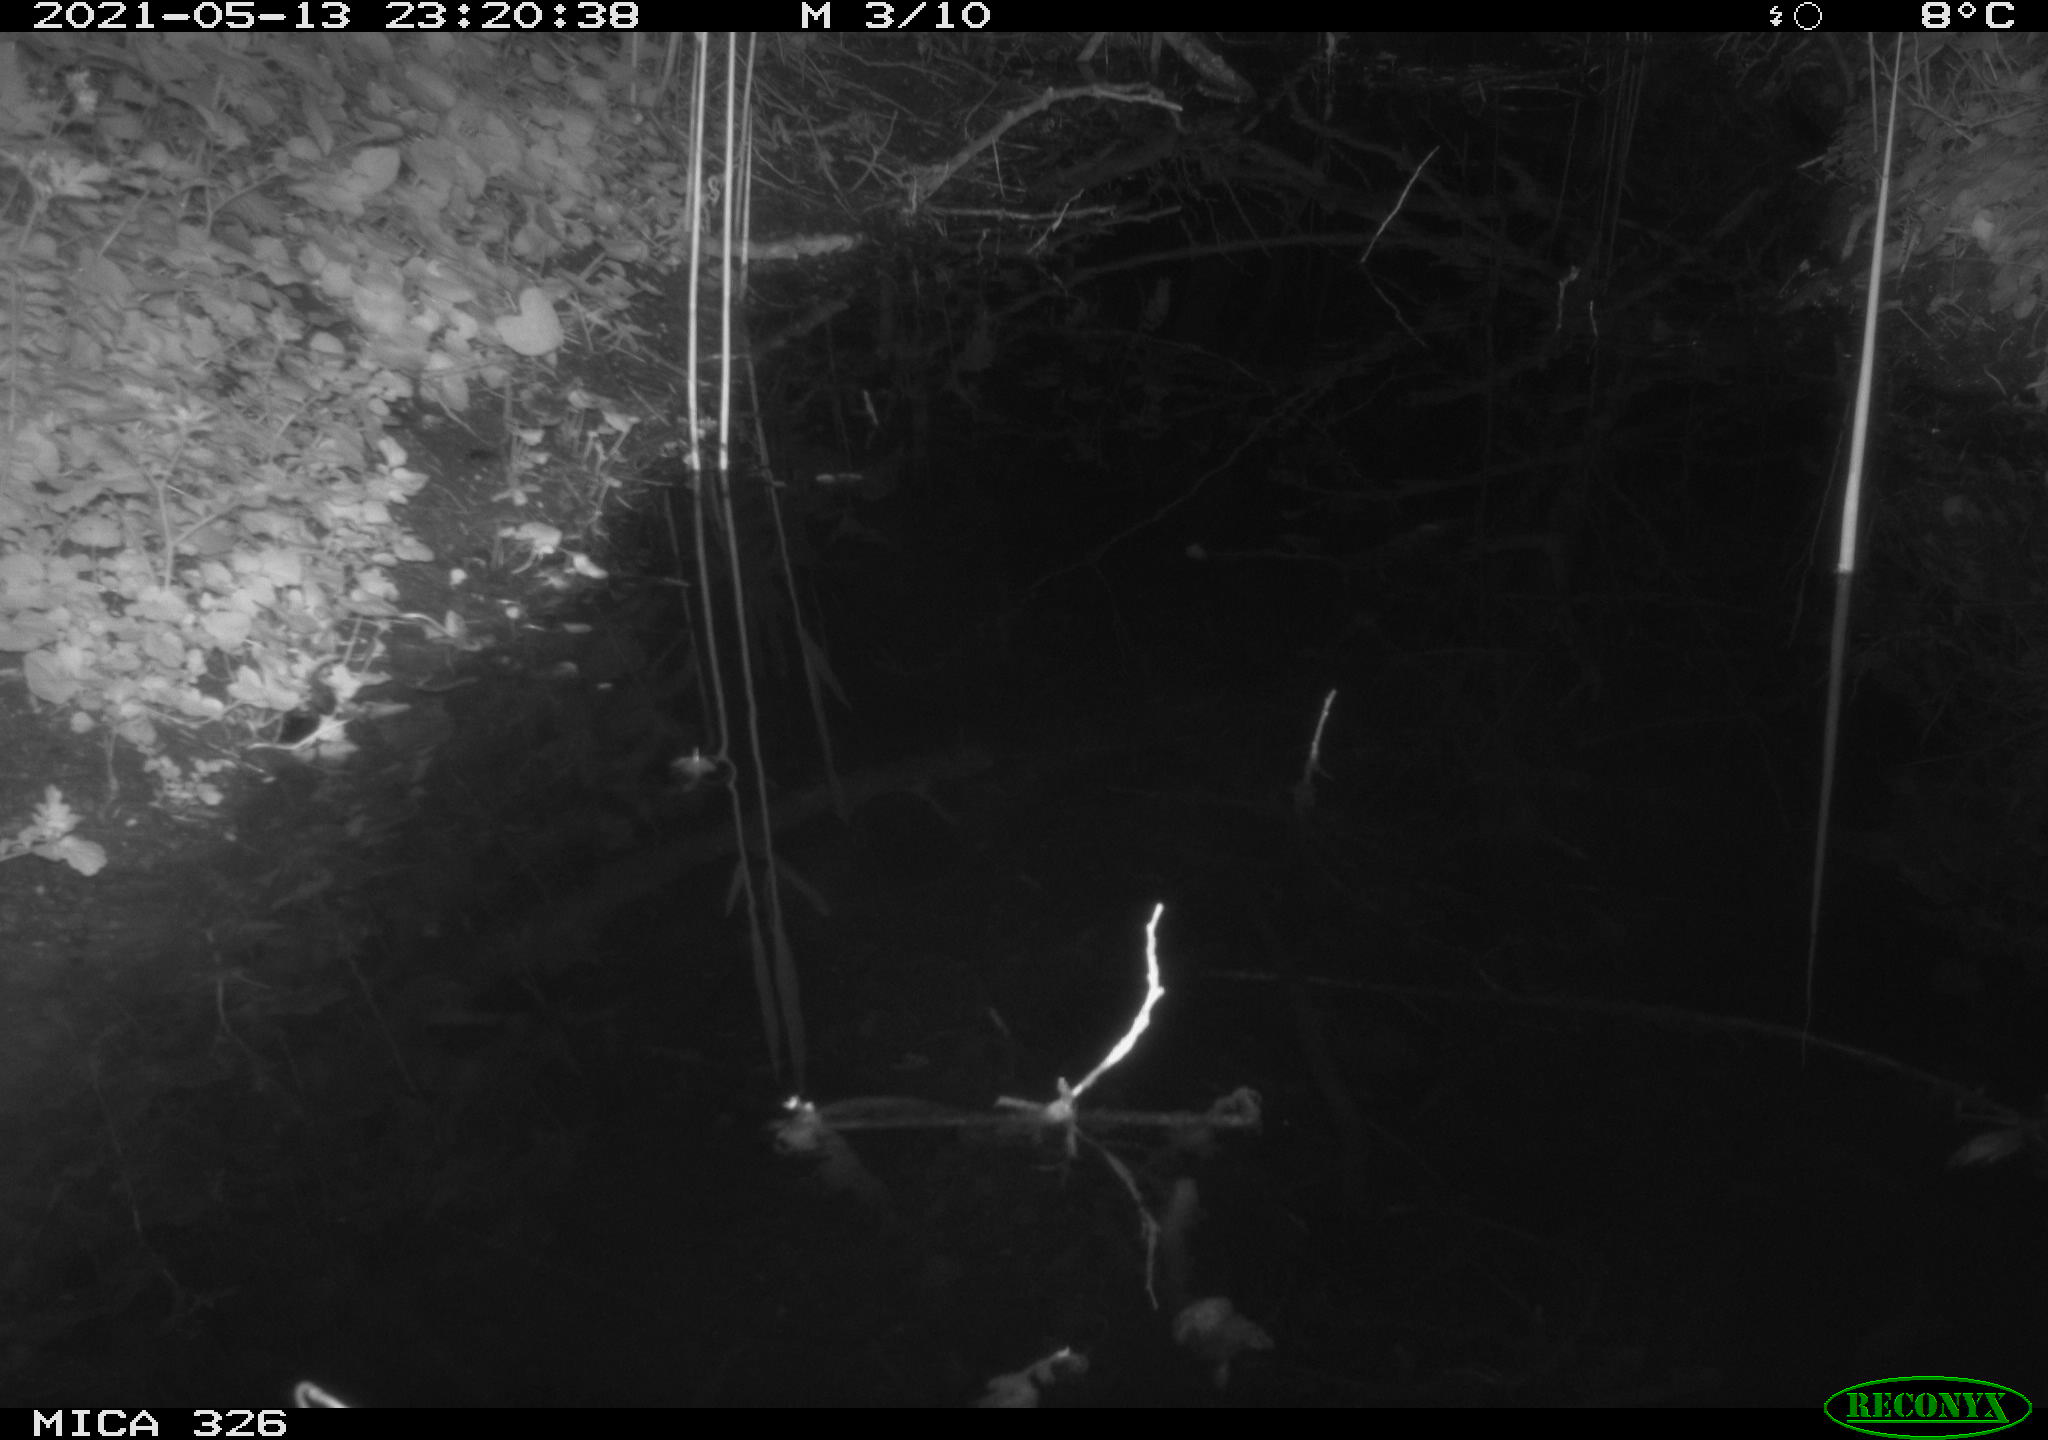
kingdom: Animalia
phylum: Chordata
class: Mammalia
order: Rodentia
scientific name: Rodentia
